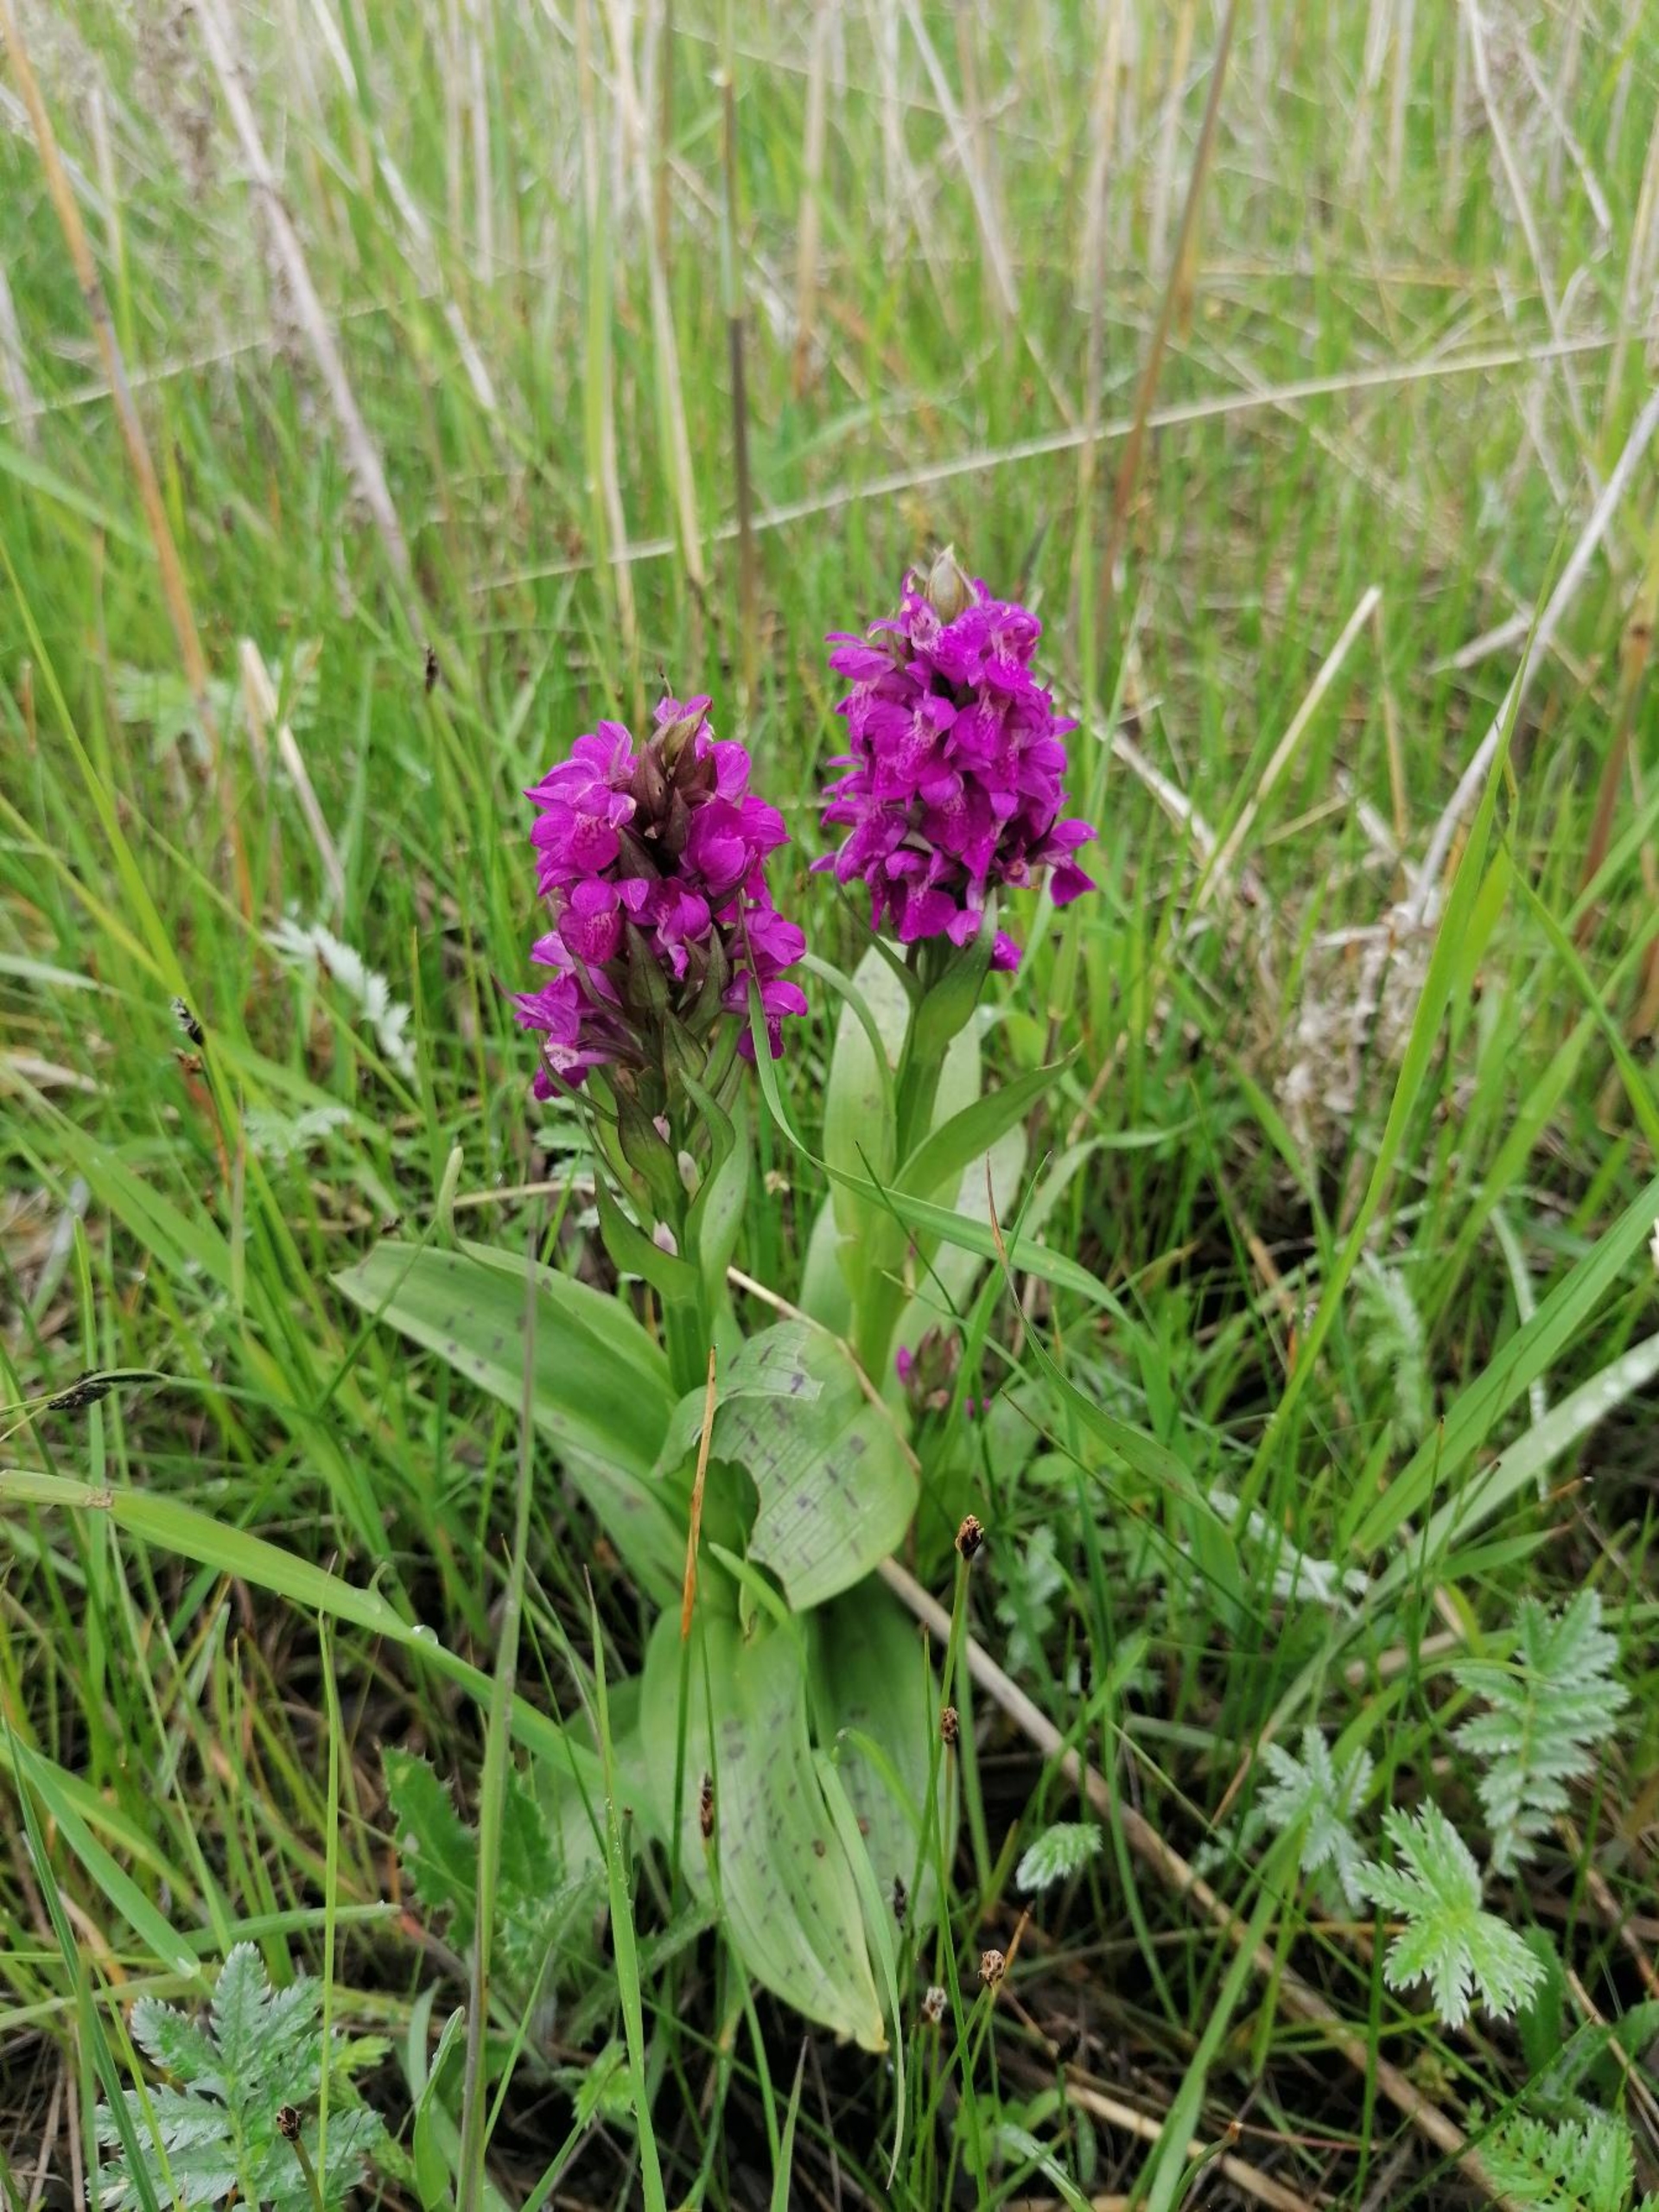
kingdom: Plantae
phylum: Tracheophyta
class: Liliopsida
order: Asparagales
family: Orchidaceae
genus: Dactylorhiza
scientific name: Dactylorhiza majalis
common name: Maj-gøgeurt
